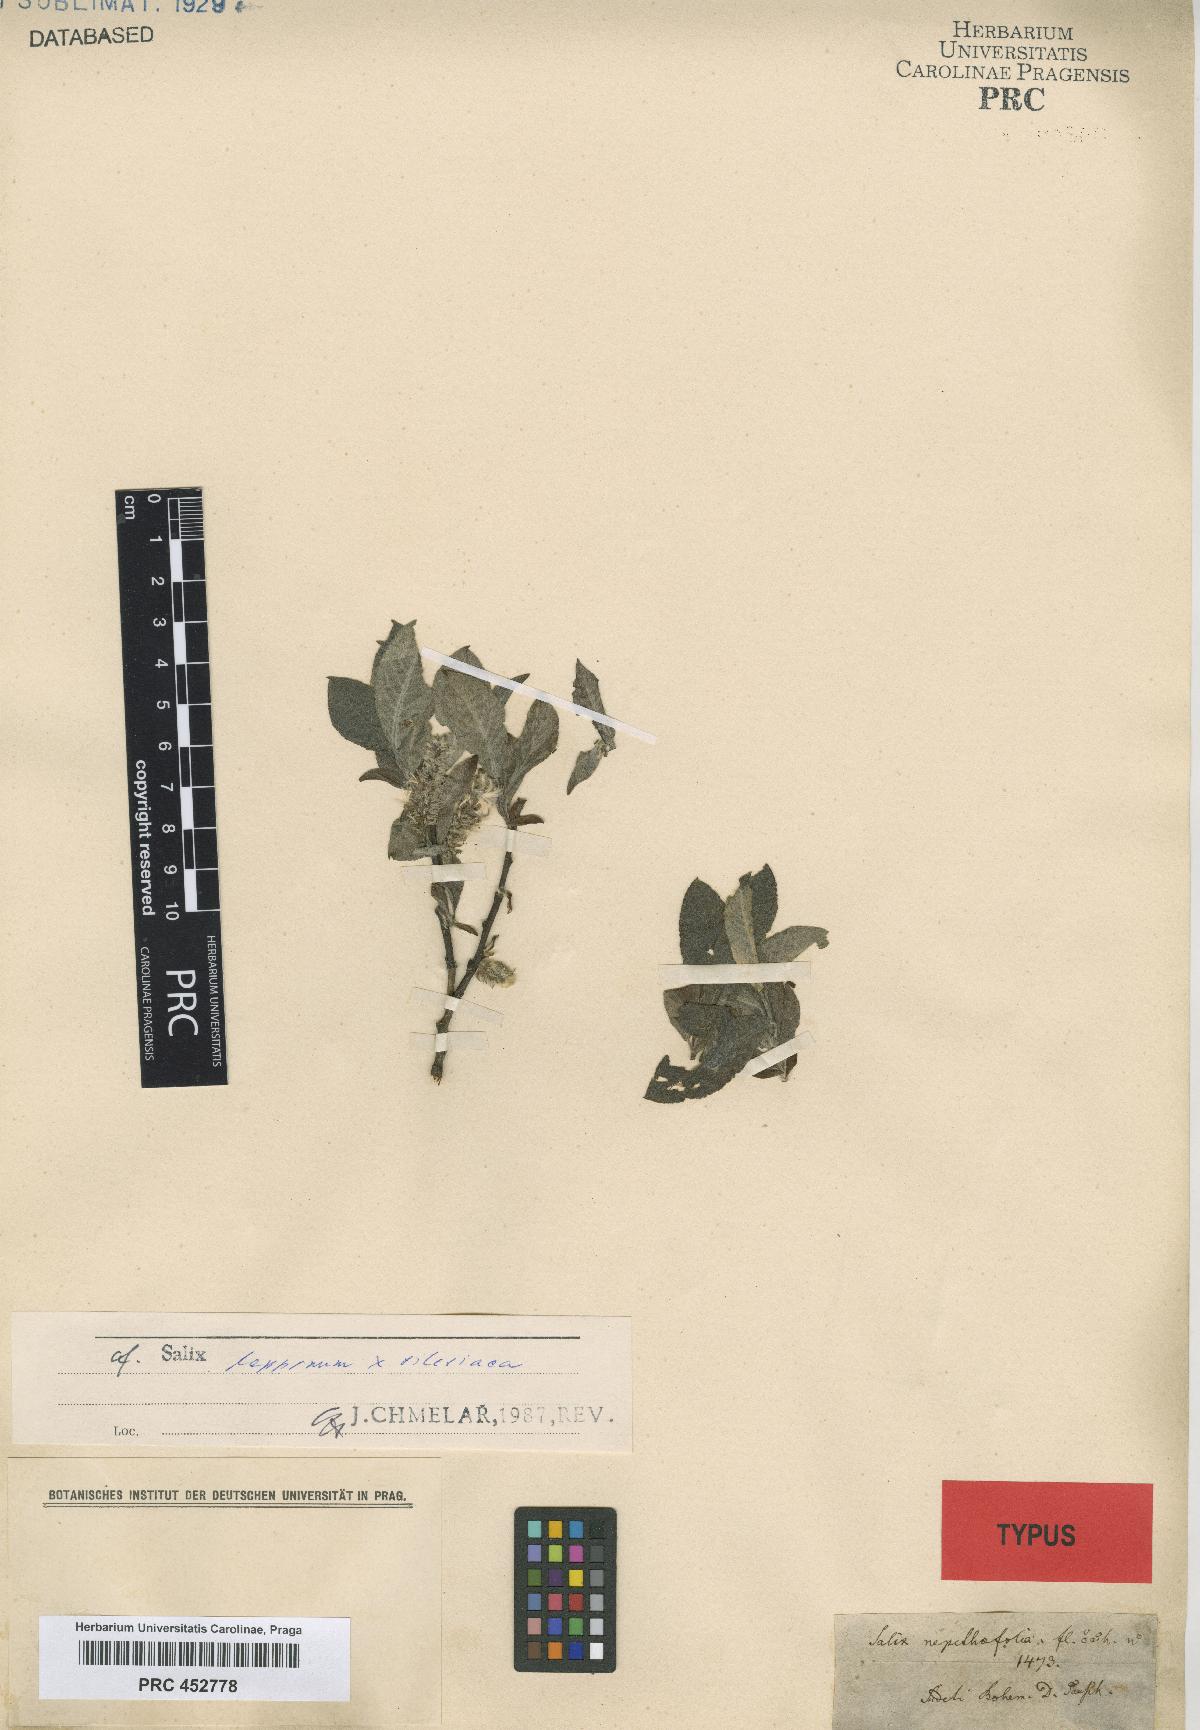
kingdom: Plantae
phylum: Tracheophyta
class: Magnoliopsida
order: Malpighiales
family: Salicaceae
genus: Salix
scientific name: Salix nepetifolia
